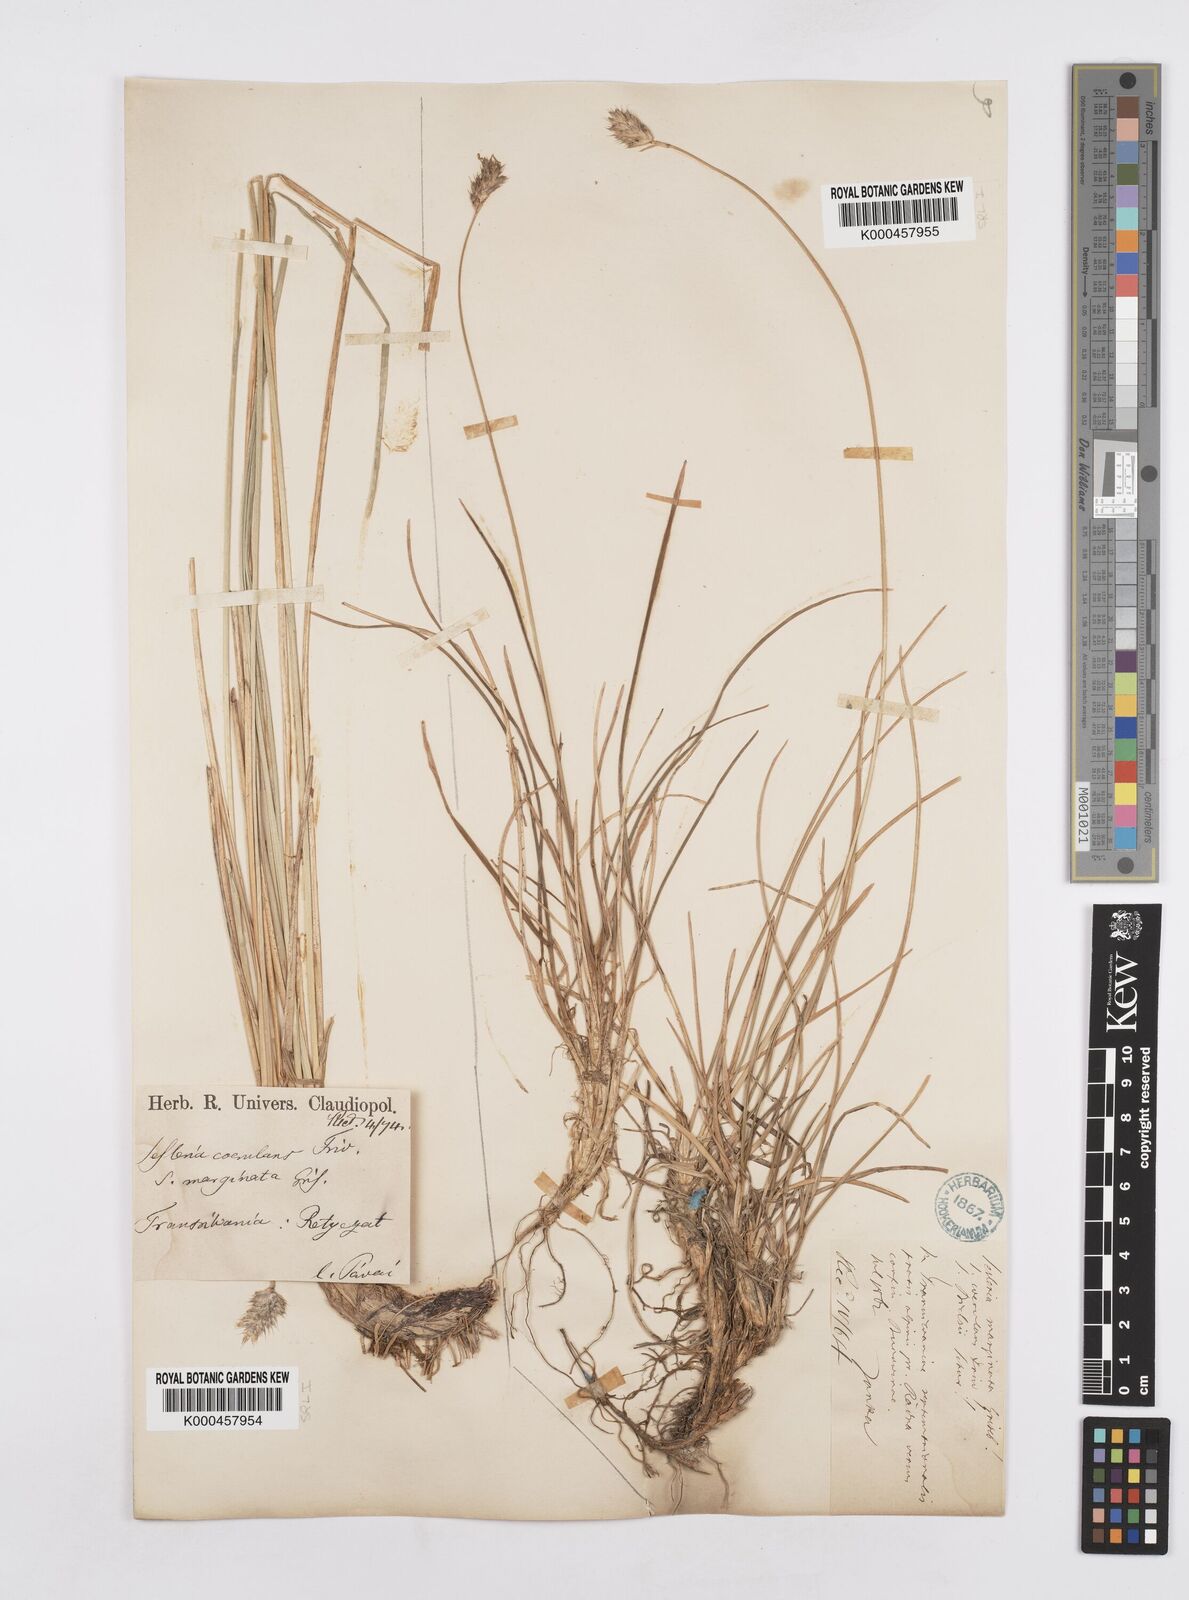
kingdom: Plantae
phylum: Tracheophyta
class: Liliopsida
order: Poales
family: Poaceae
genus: Sesleria
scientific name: Sesleria coerulans
